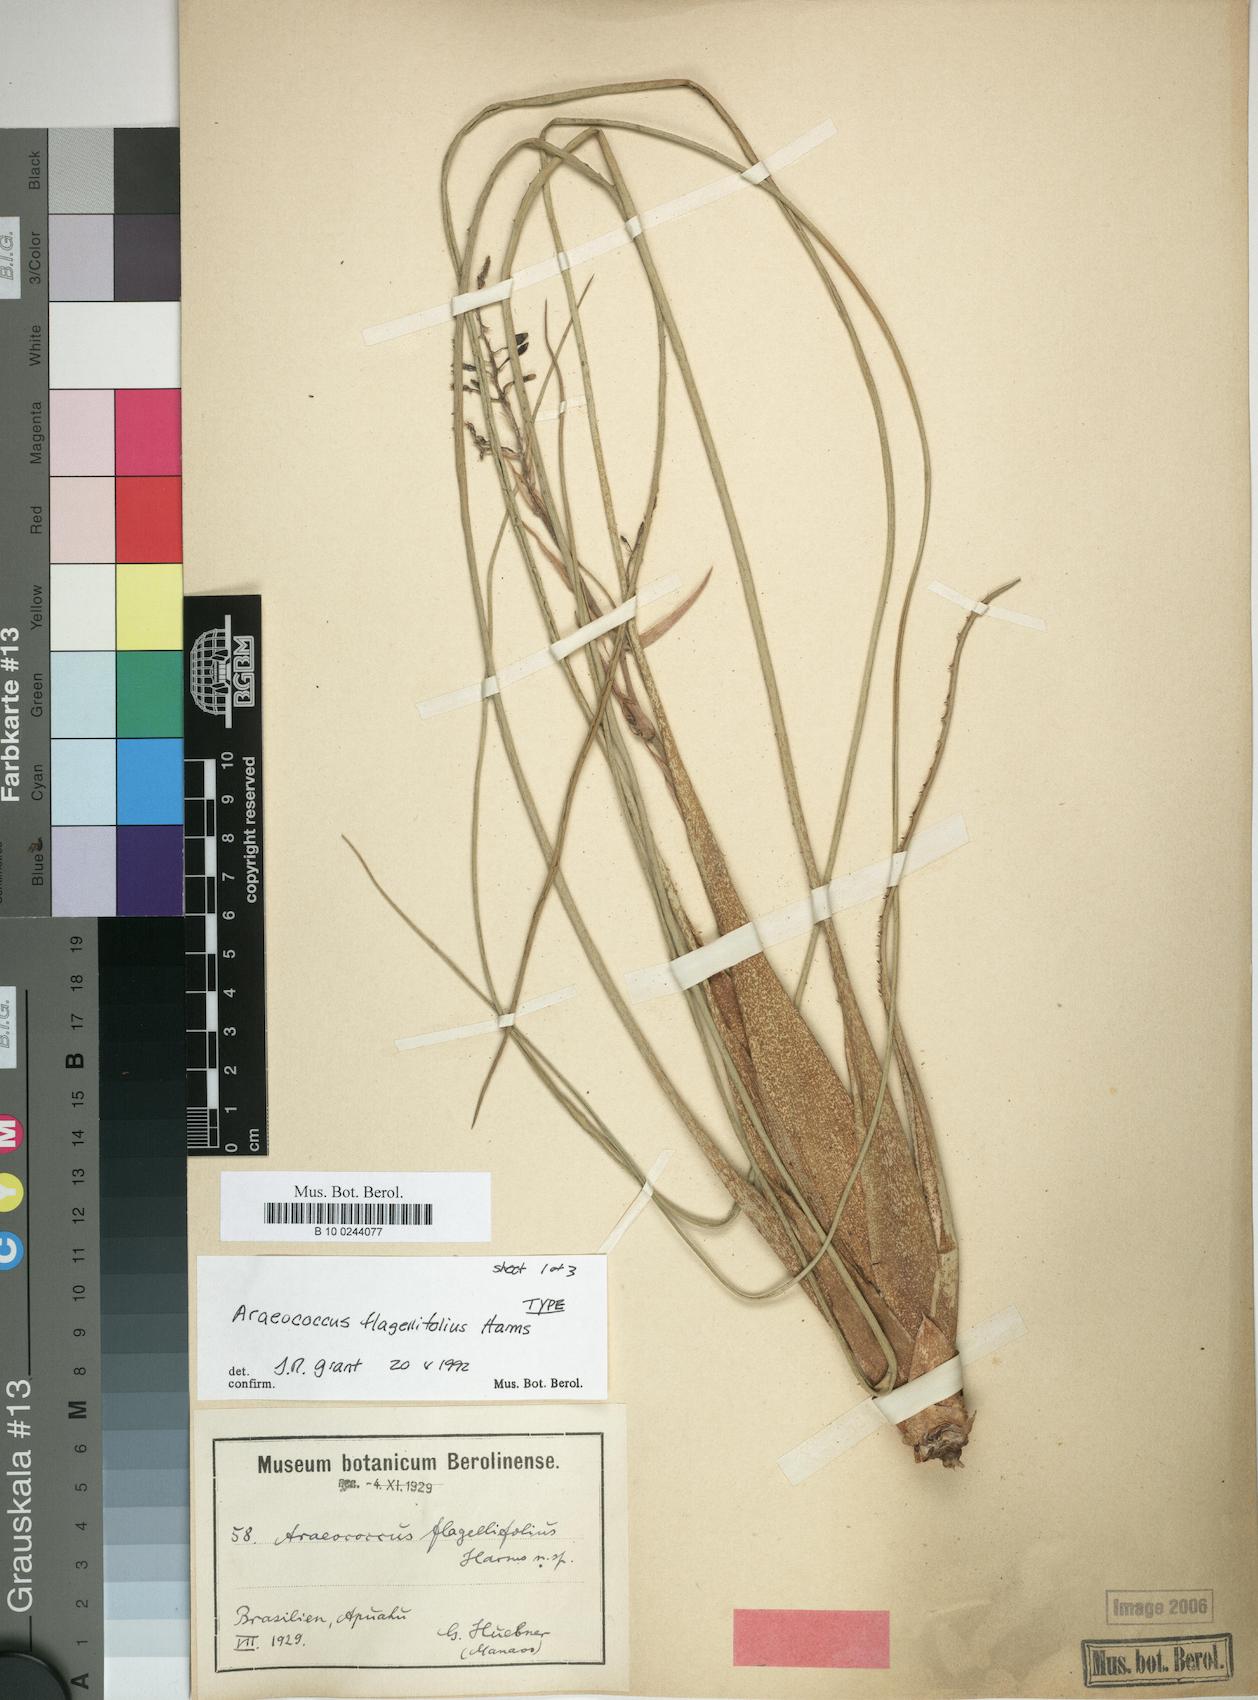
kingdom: Plantae
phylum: Tracheophyta
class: Liliopsida
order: Poales
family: Bromeliaceae
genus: Araeococcus
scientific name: Araeococcus flagellifolius
